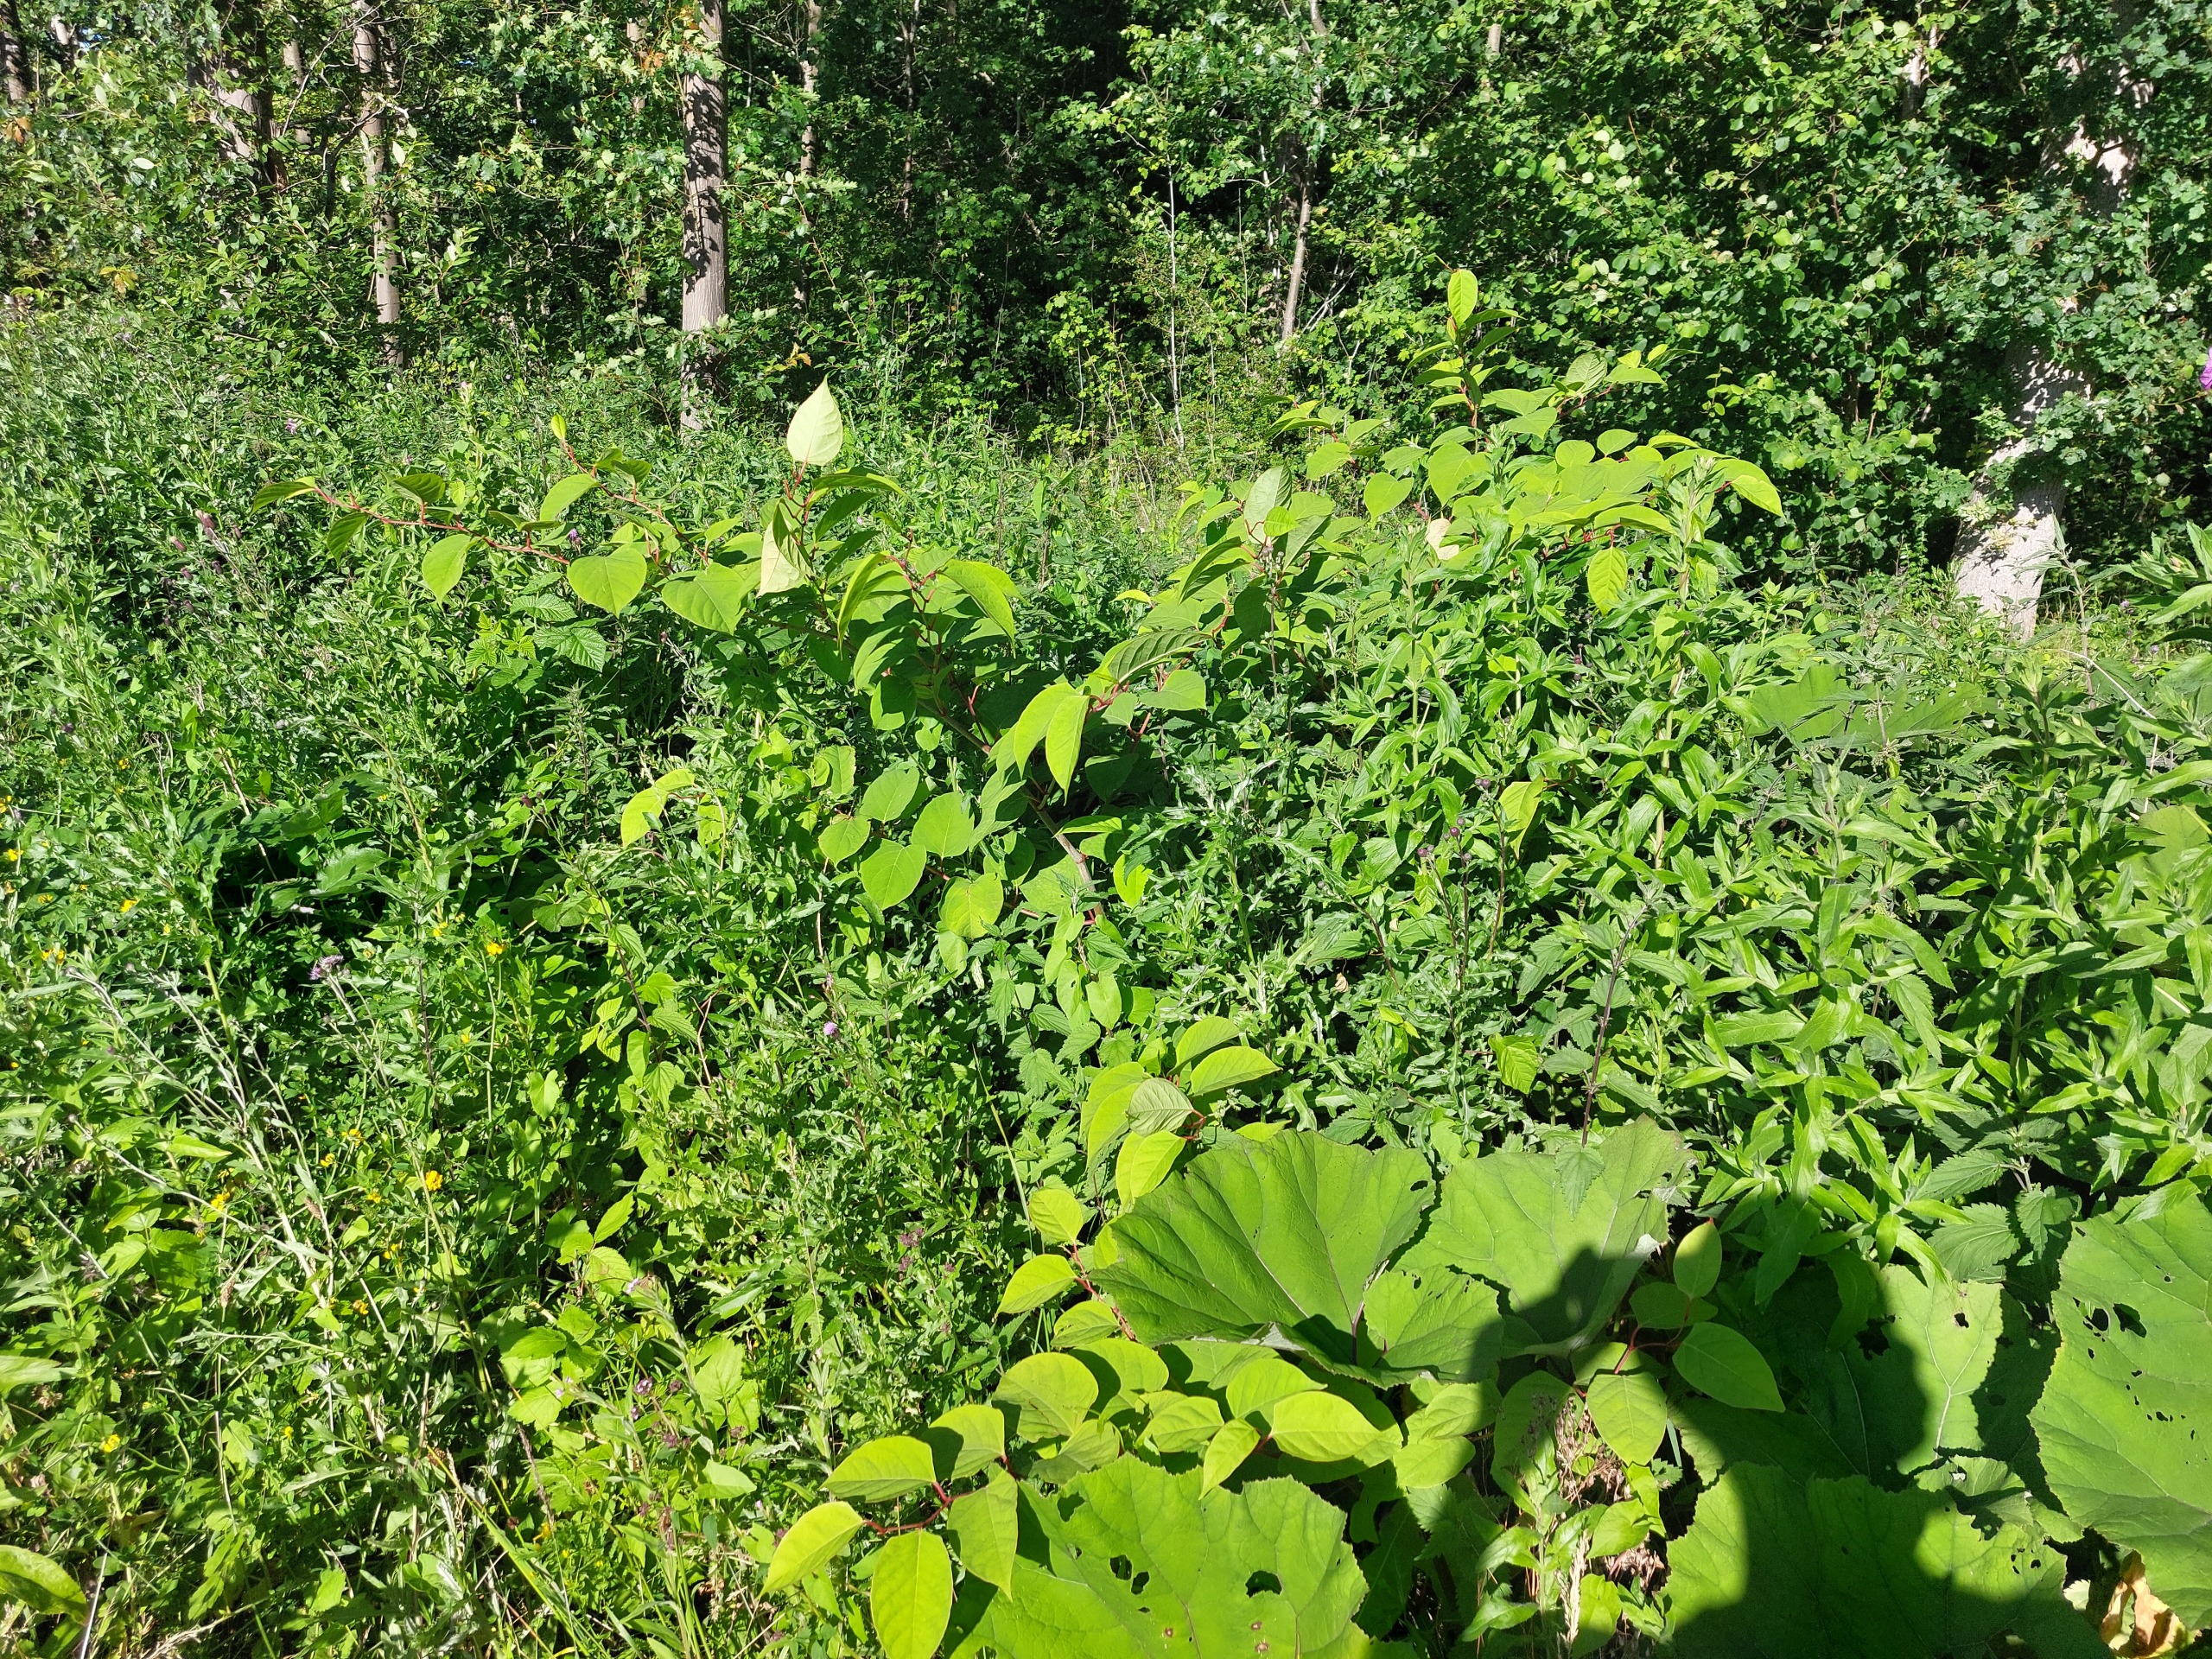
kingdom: Plantae
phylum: Tracheophyta
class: Magnoliopsida
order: Caryophyllales
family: Polygonaceae
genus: Reynoutria
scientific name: Reynoutria japonica
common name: Japan-pileurt
